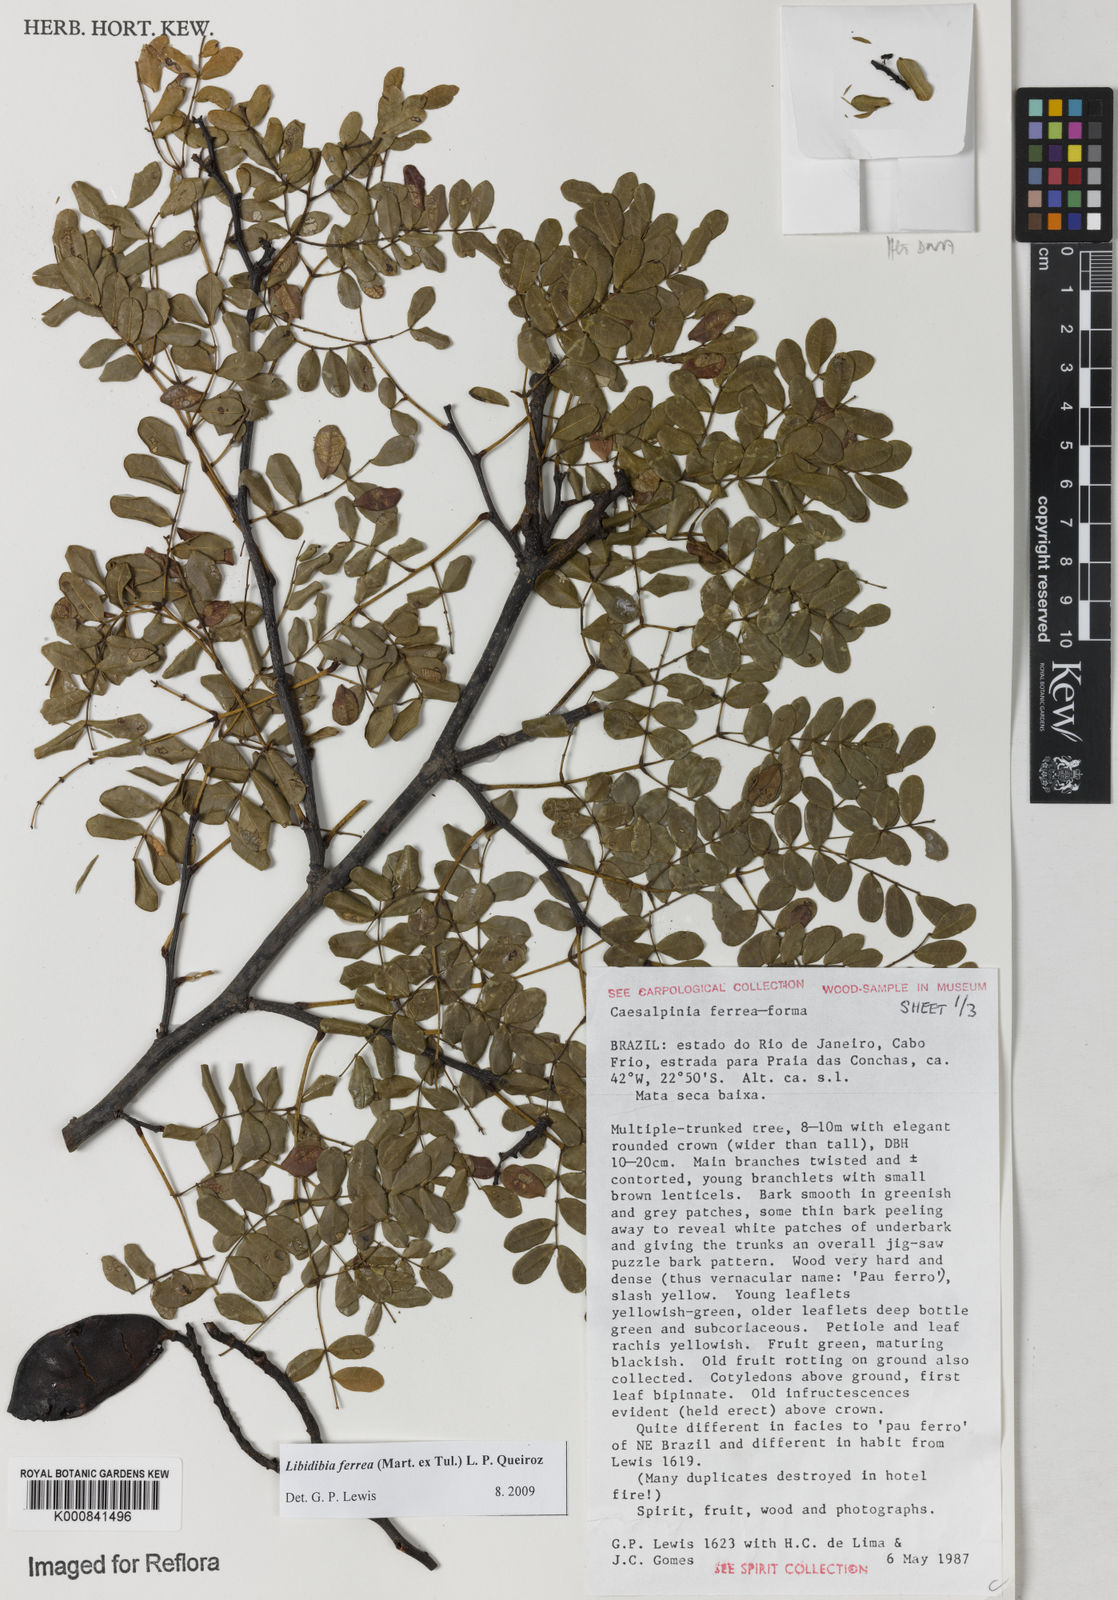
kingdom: Plantae
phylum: Tracheophyta
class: Magnoliopsida
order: Fabales
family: Fabaceae
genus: Libidibia
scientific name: Libidibia ferrea
